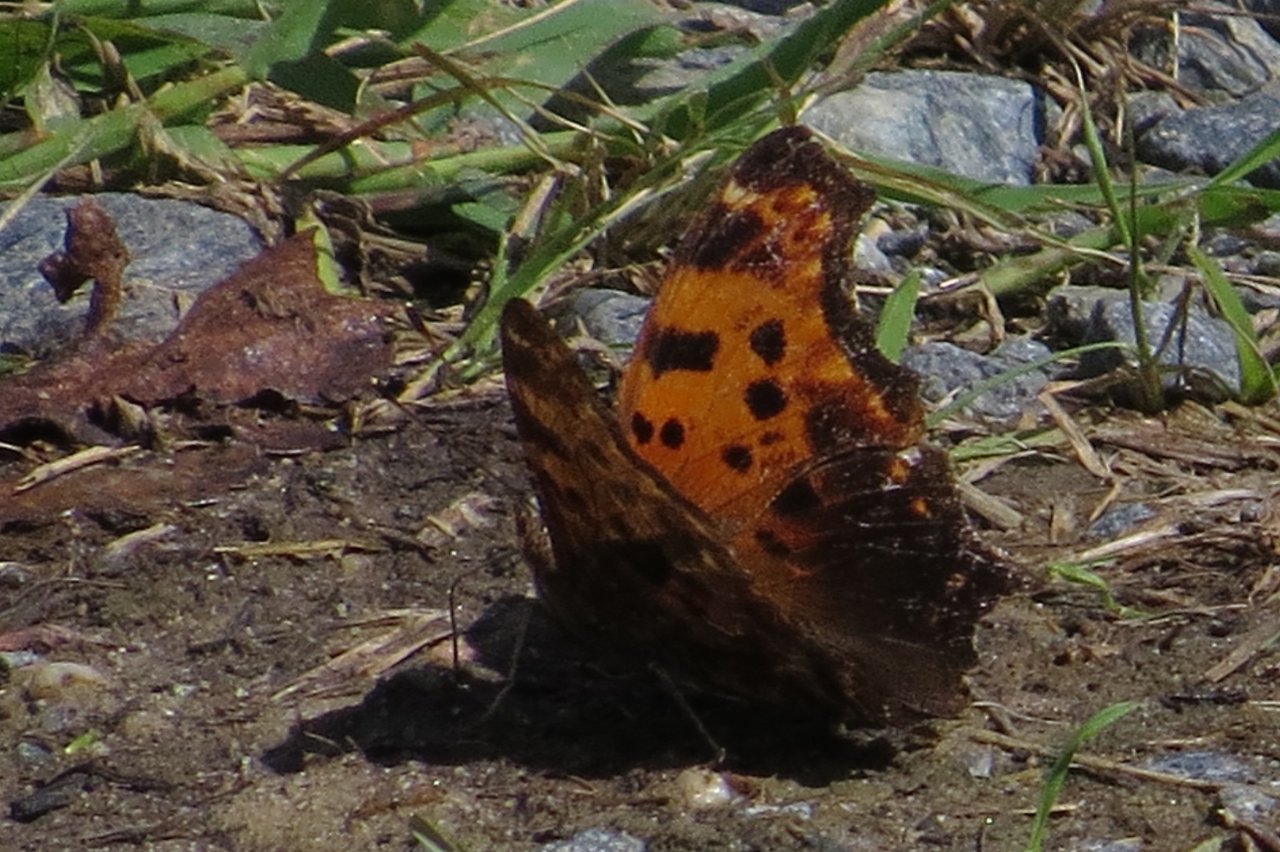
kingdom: Animalia
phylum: Arthropoda
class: Insecta
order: Lepidoptera
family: Nymphalidae
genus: Polygonia
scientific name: Polygonia comma
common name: Eastern Comma
